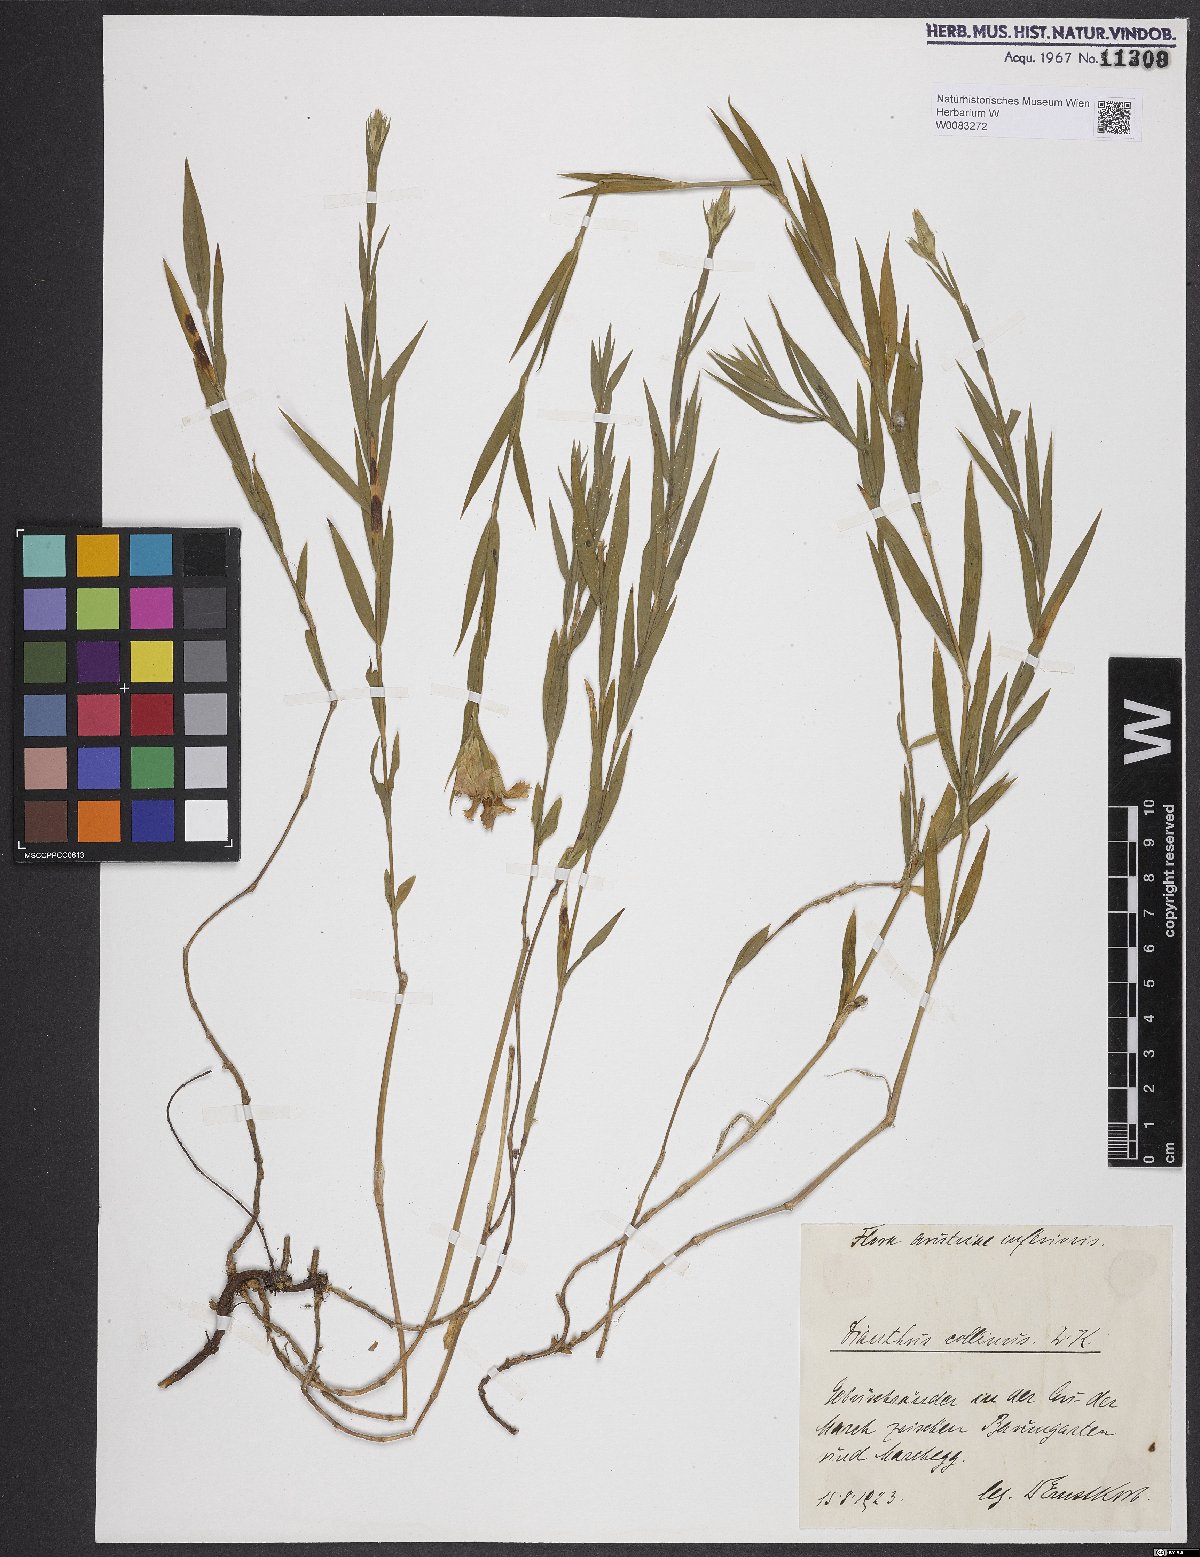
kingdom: Plantae
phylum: Tracheophyta
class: Magnoliopsida
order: Caryophyllales
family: Caryophyllaceae
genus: Dianthus
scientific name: Dianthus collinus
